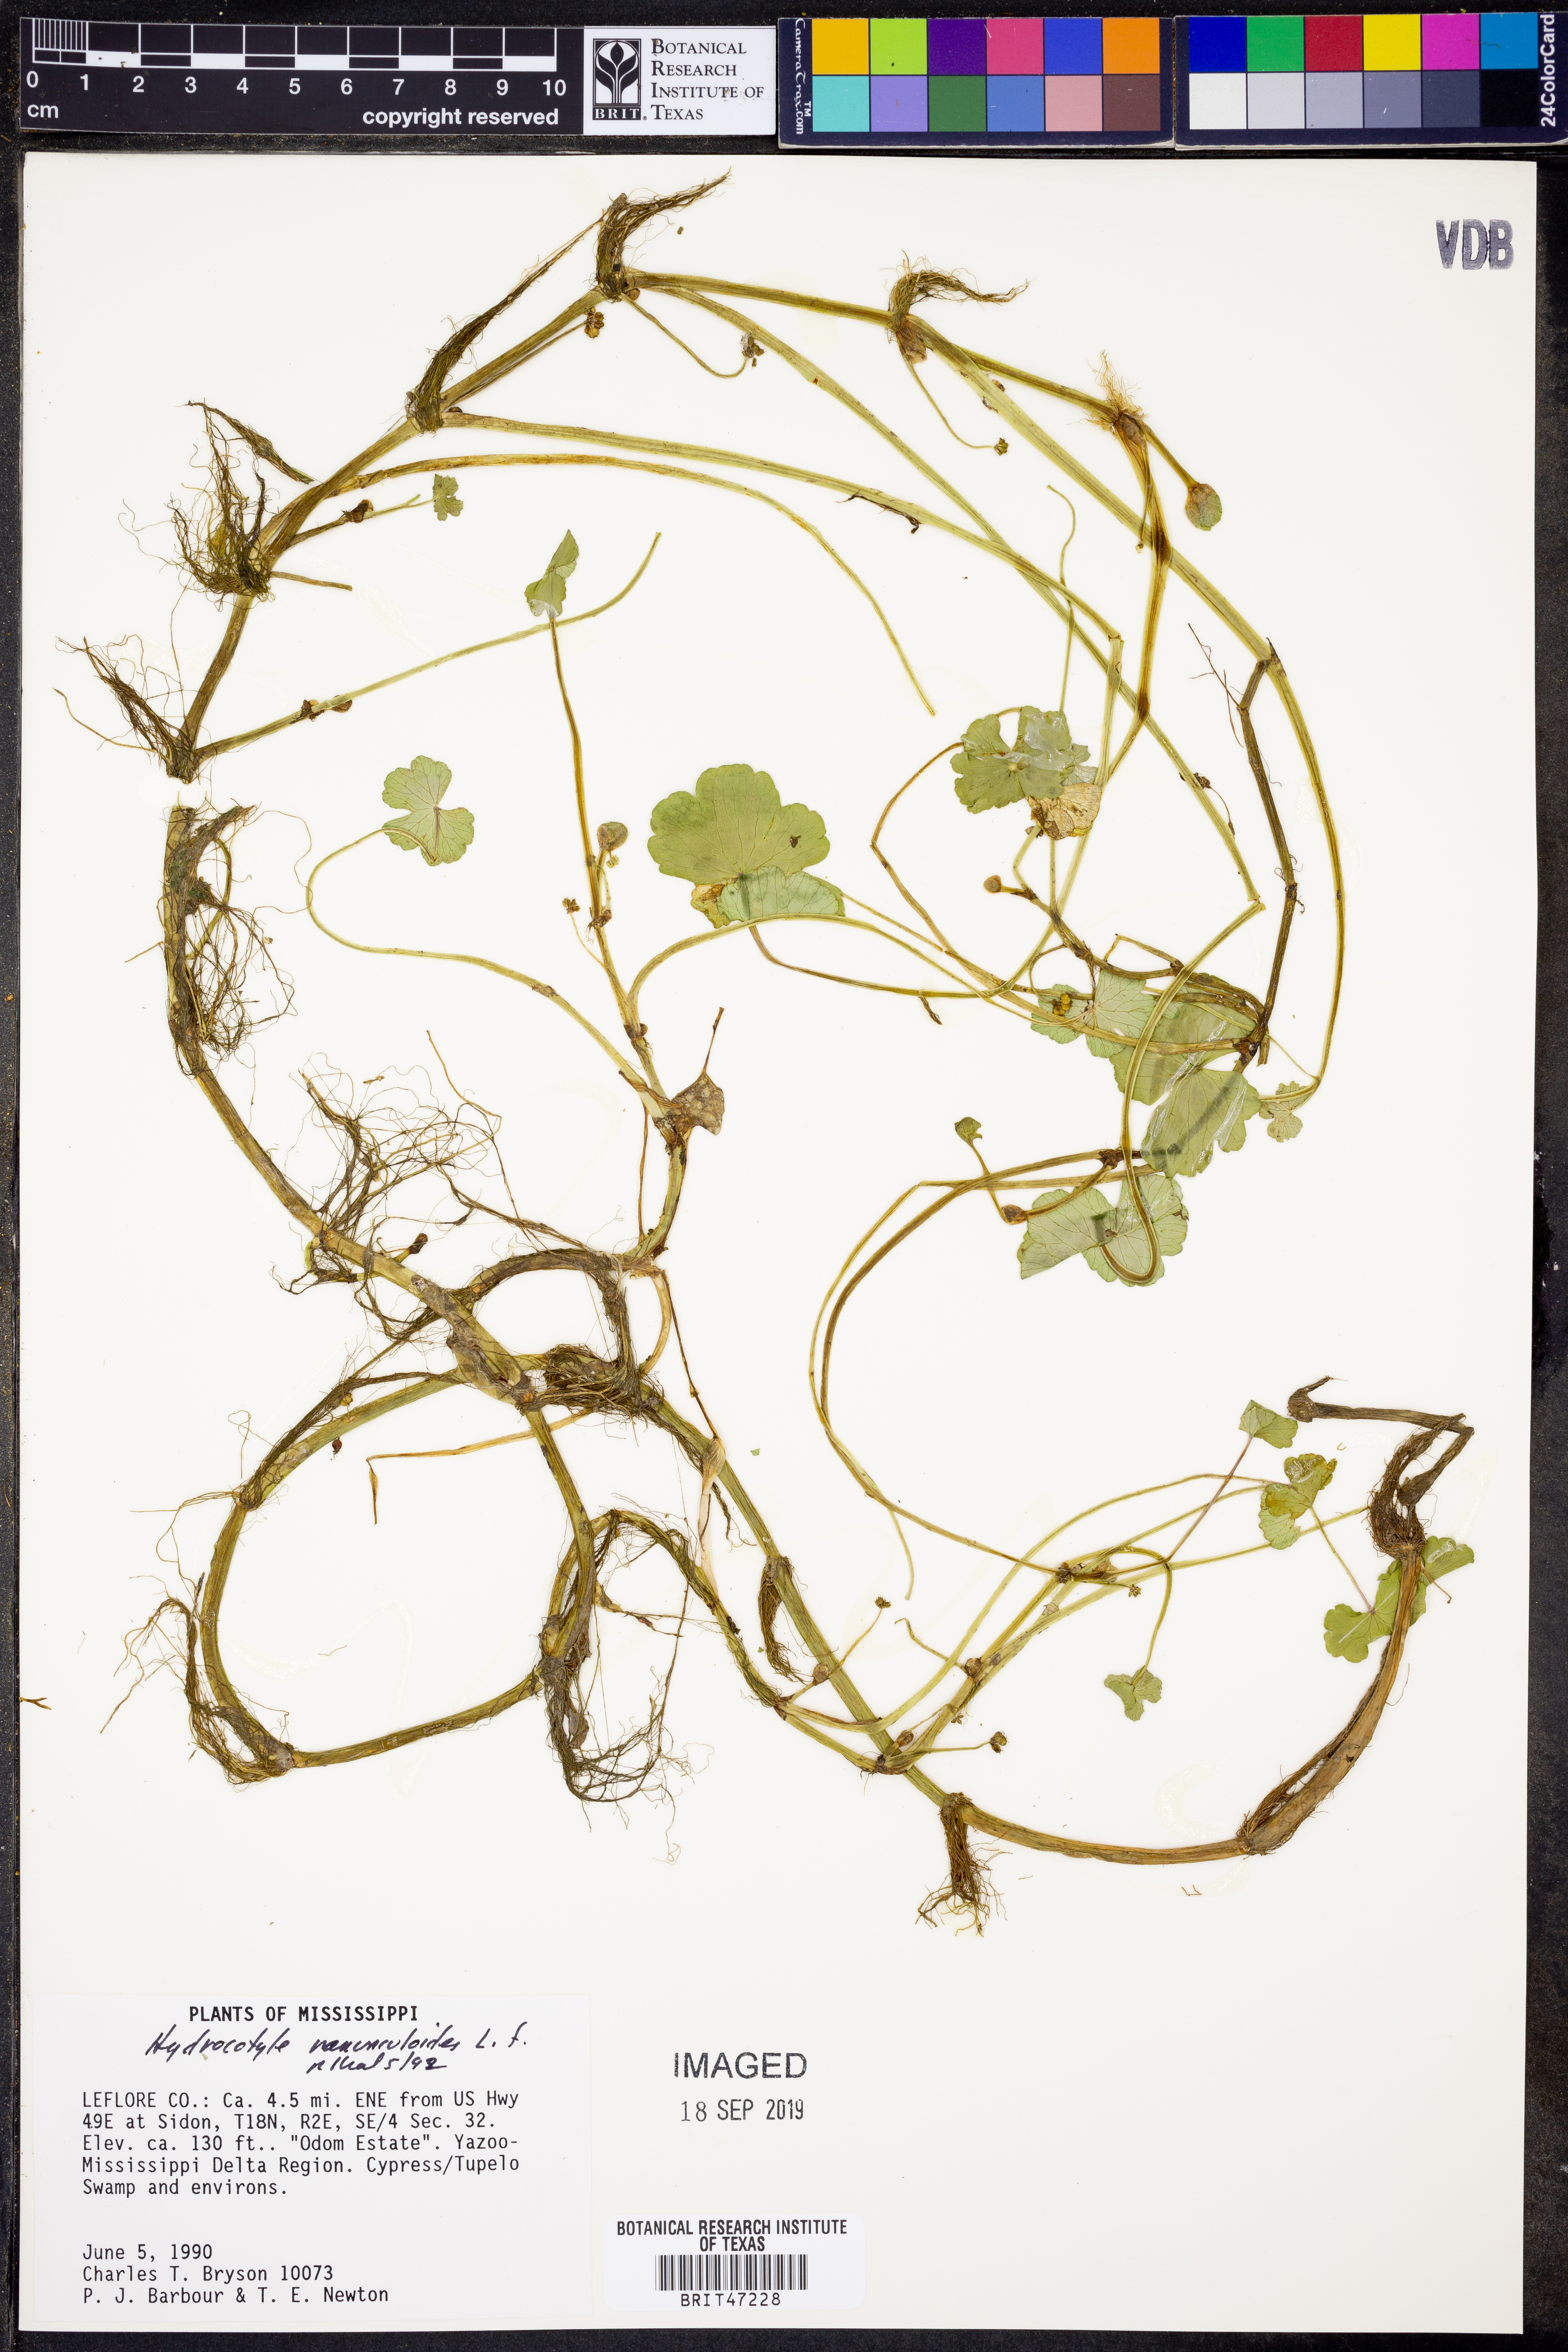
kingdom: Plantae
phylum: Tracheophyta
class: Magnoliopsida
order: Apiales
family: Araliaceae
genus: Hydrocotyle
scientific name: Hydrocotyle ranunculoides
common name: Floating pennywort
